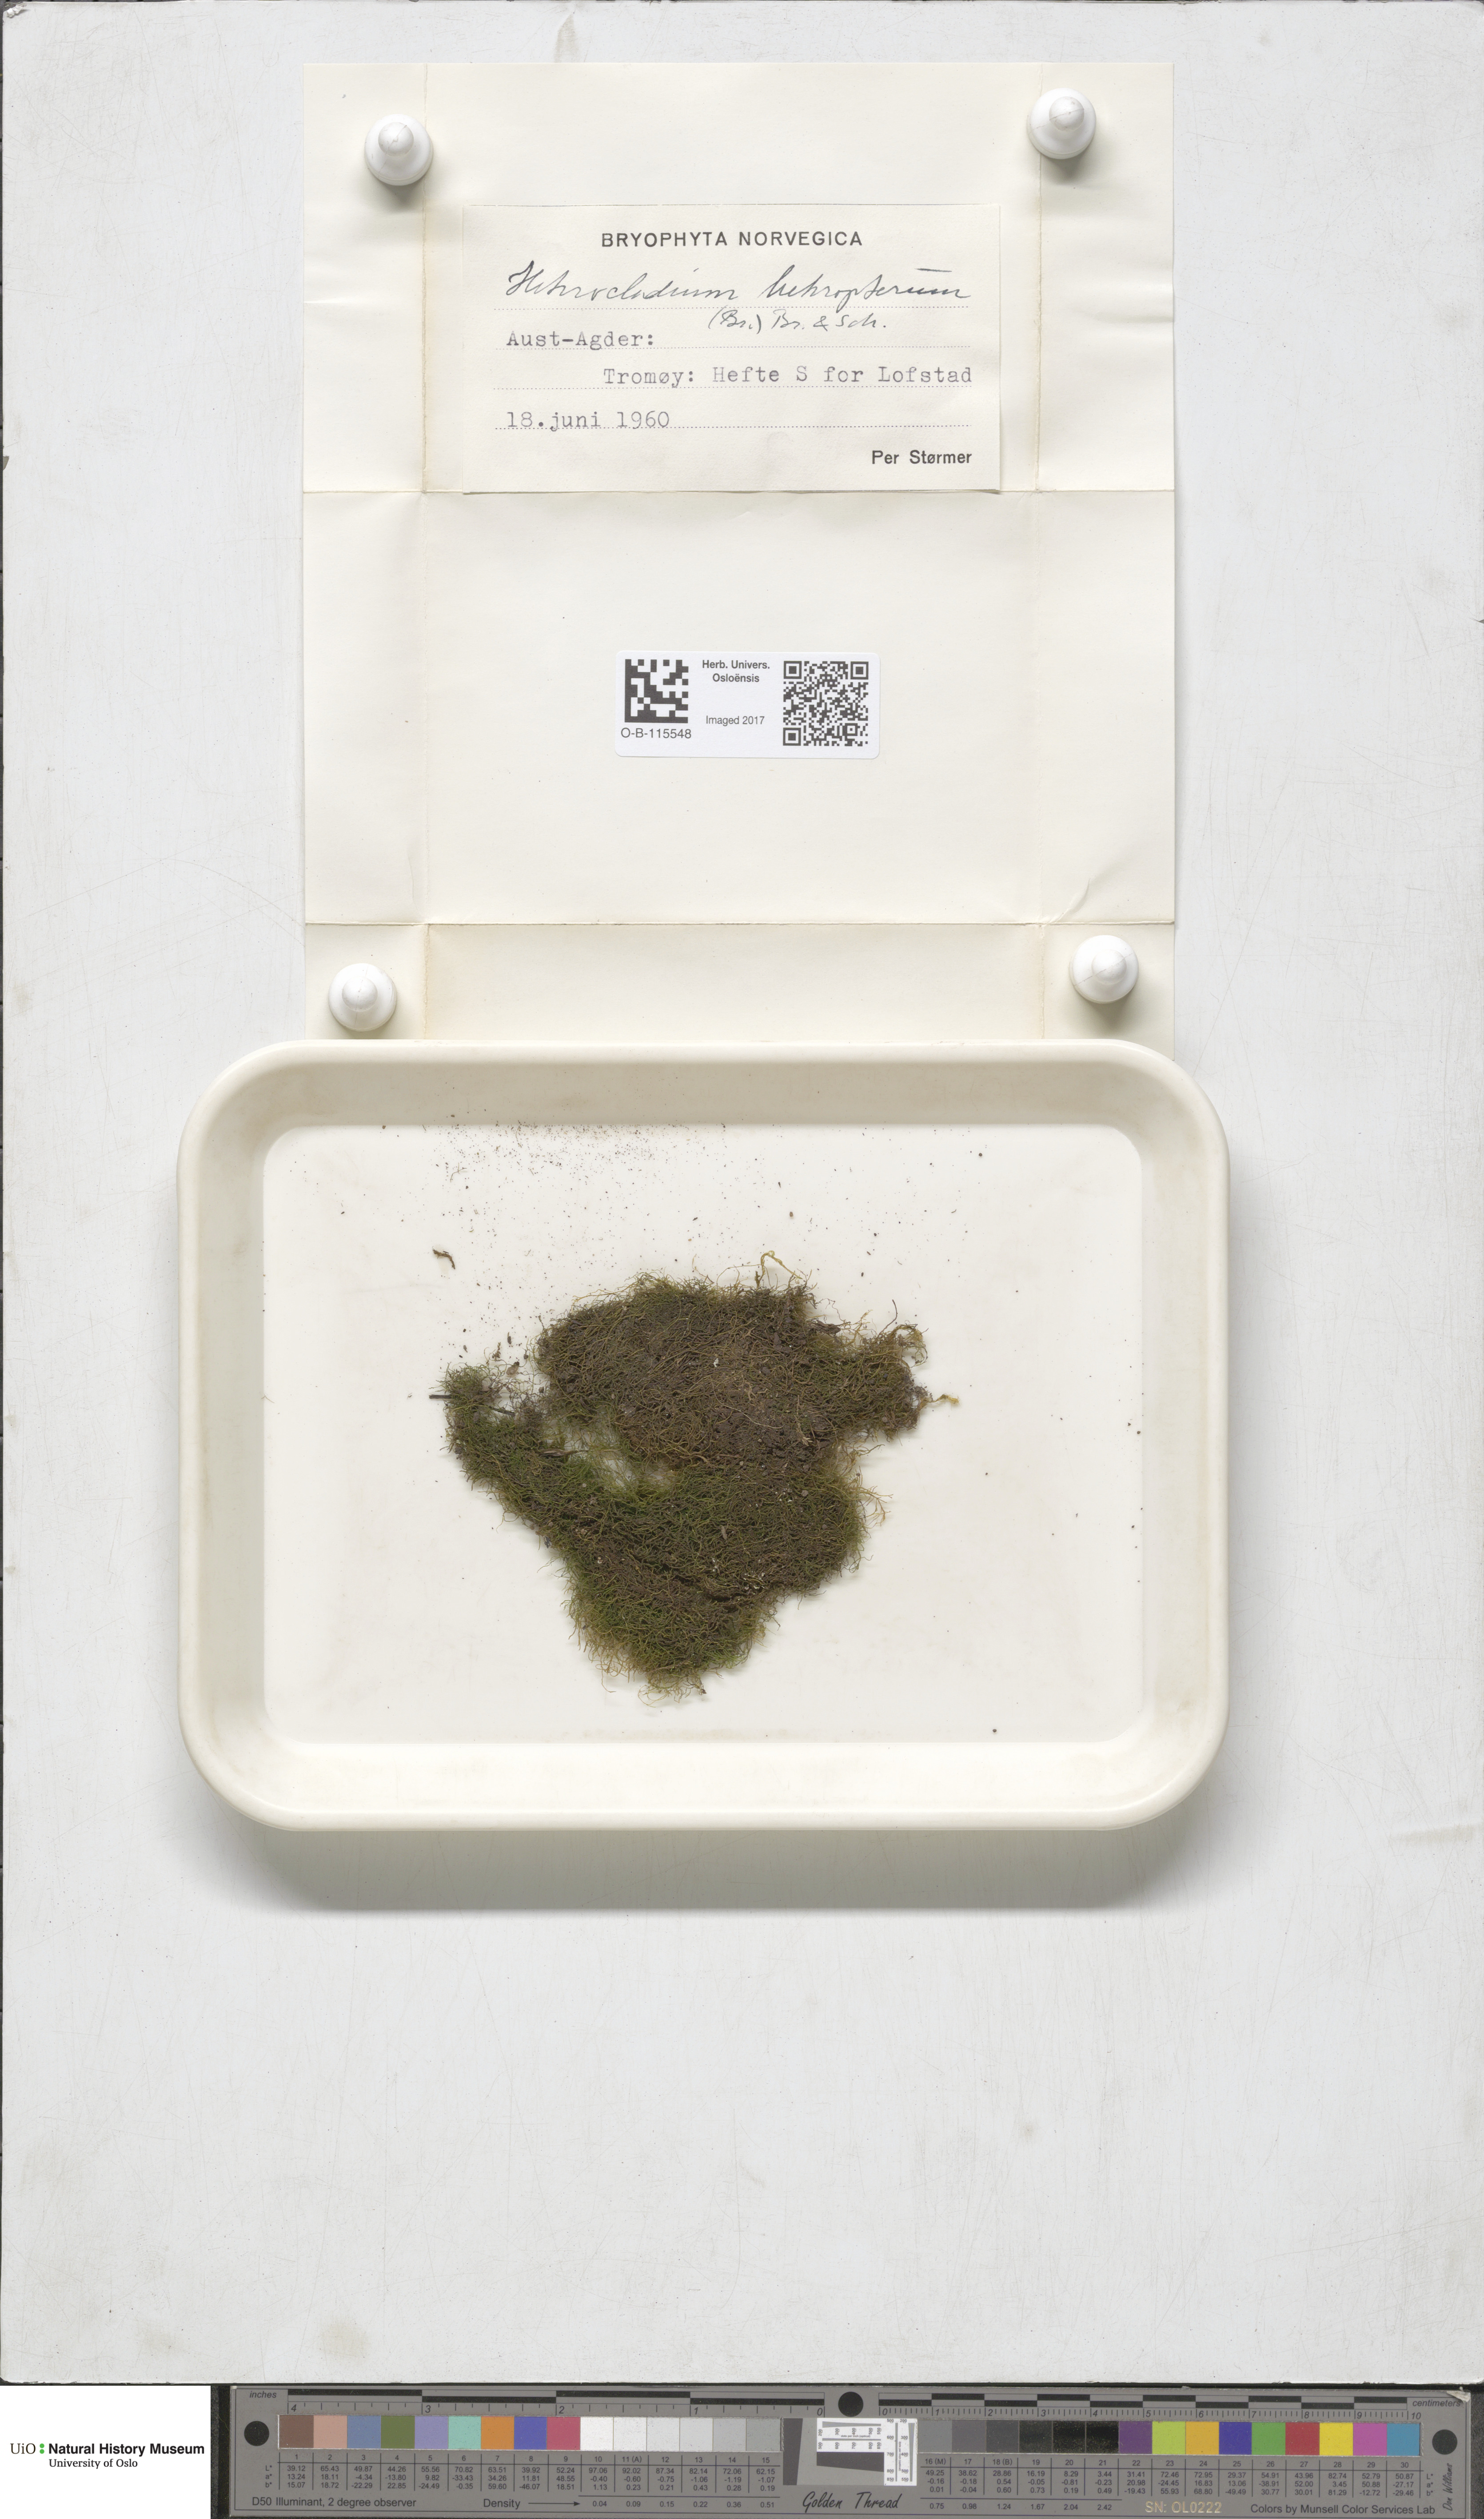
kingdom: Plantae
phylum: Bryophyta
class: Bryopsida
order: Hypnales
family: Lembophyllaceae
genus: Heterocladium
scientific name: Heterocladium heteropterum
